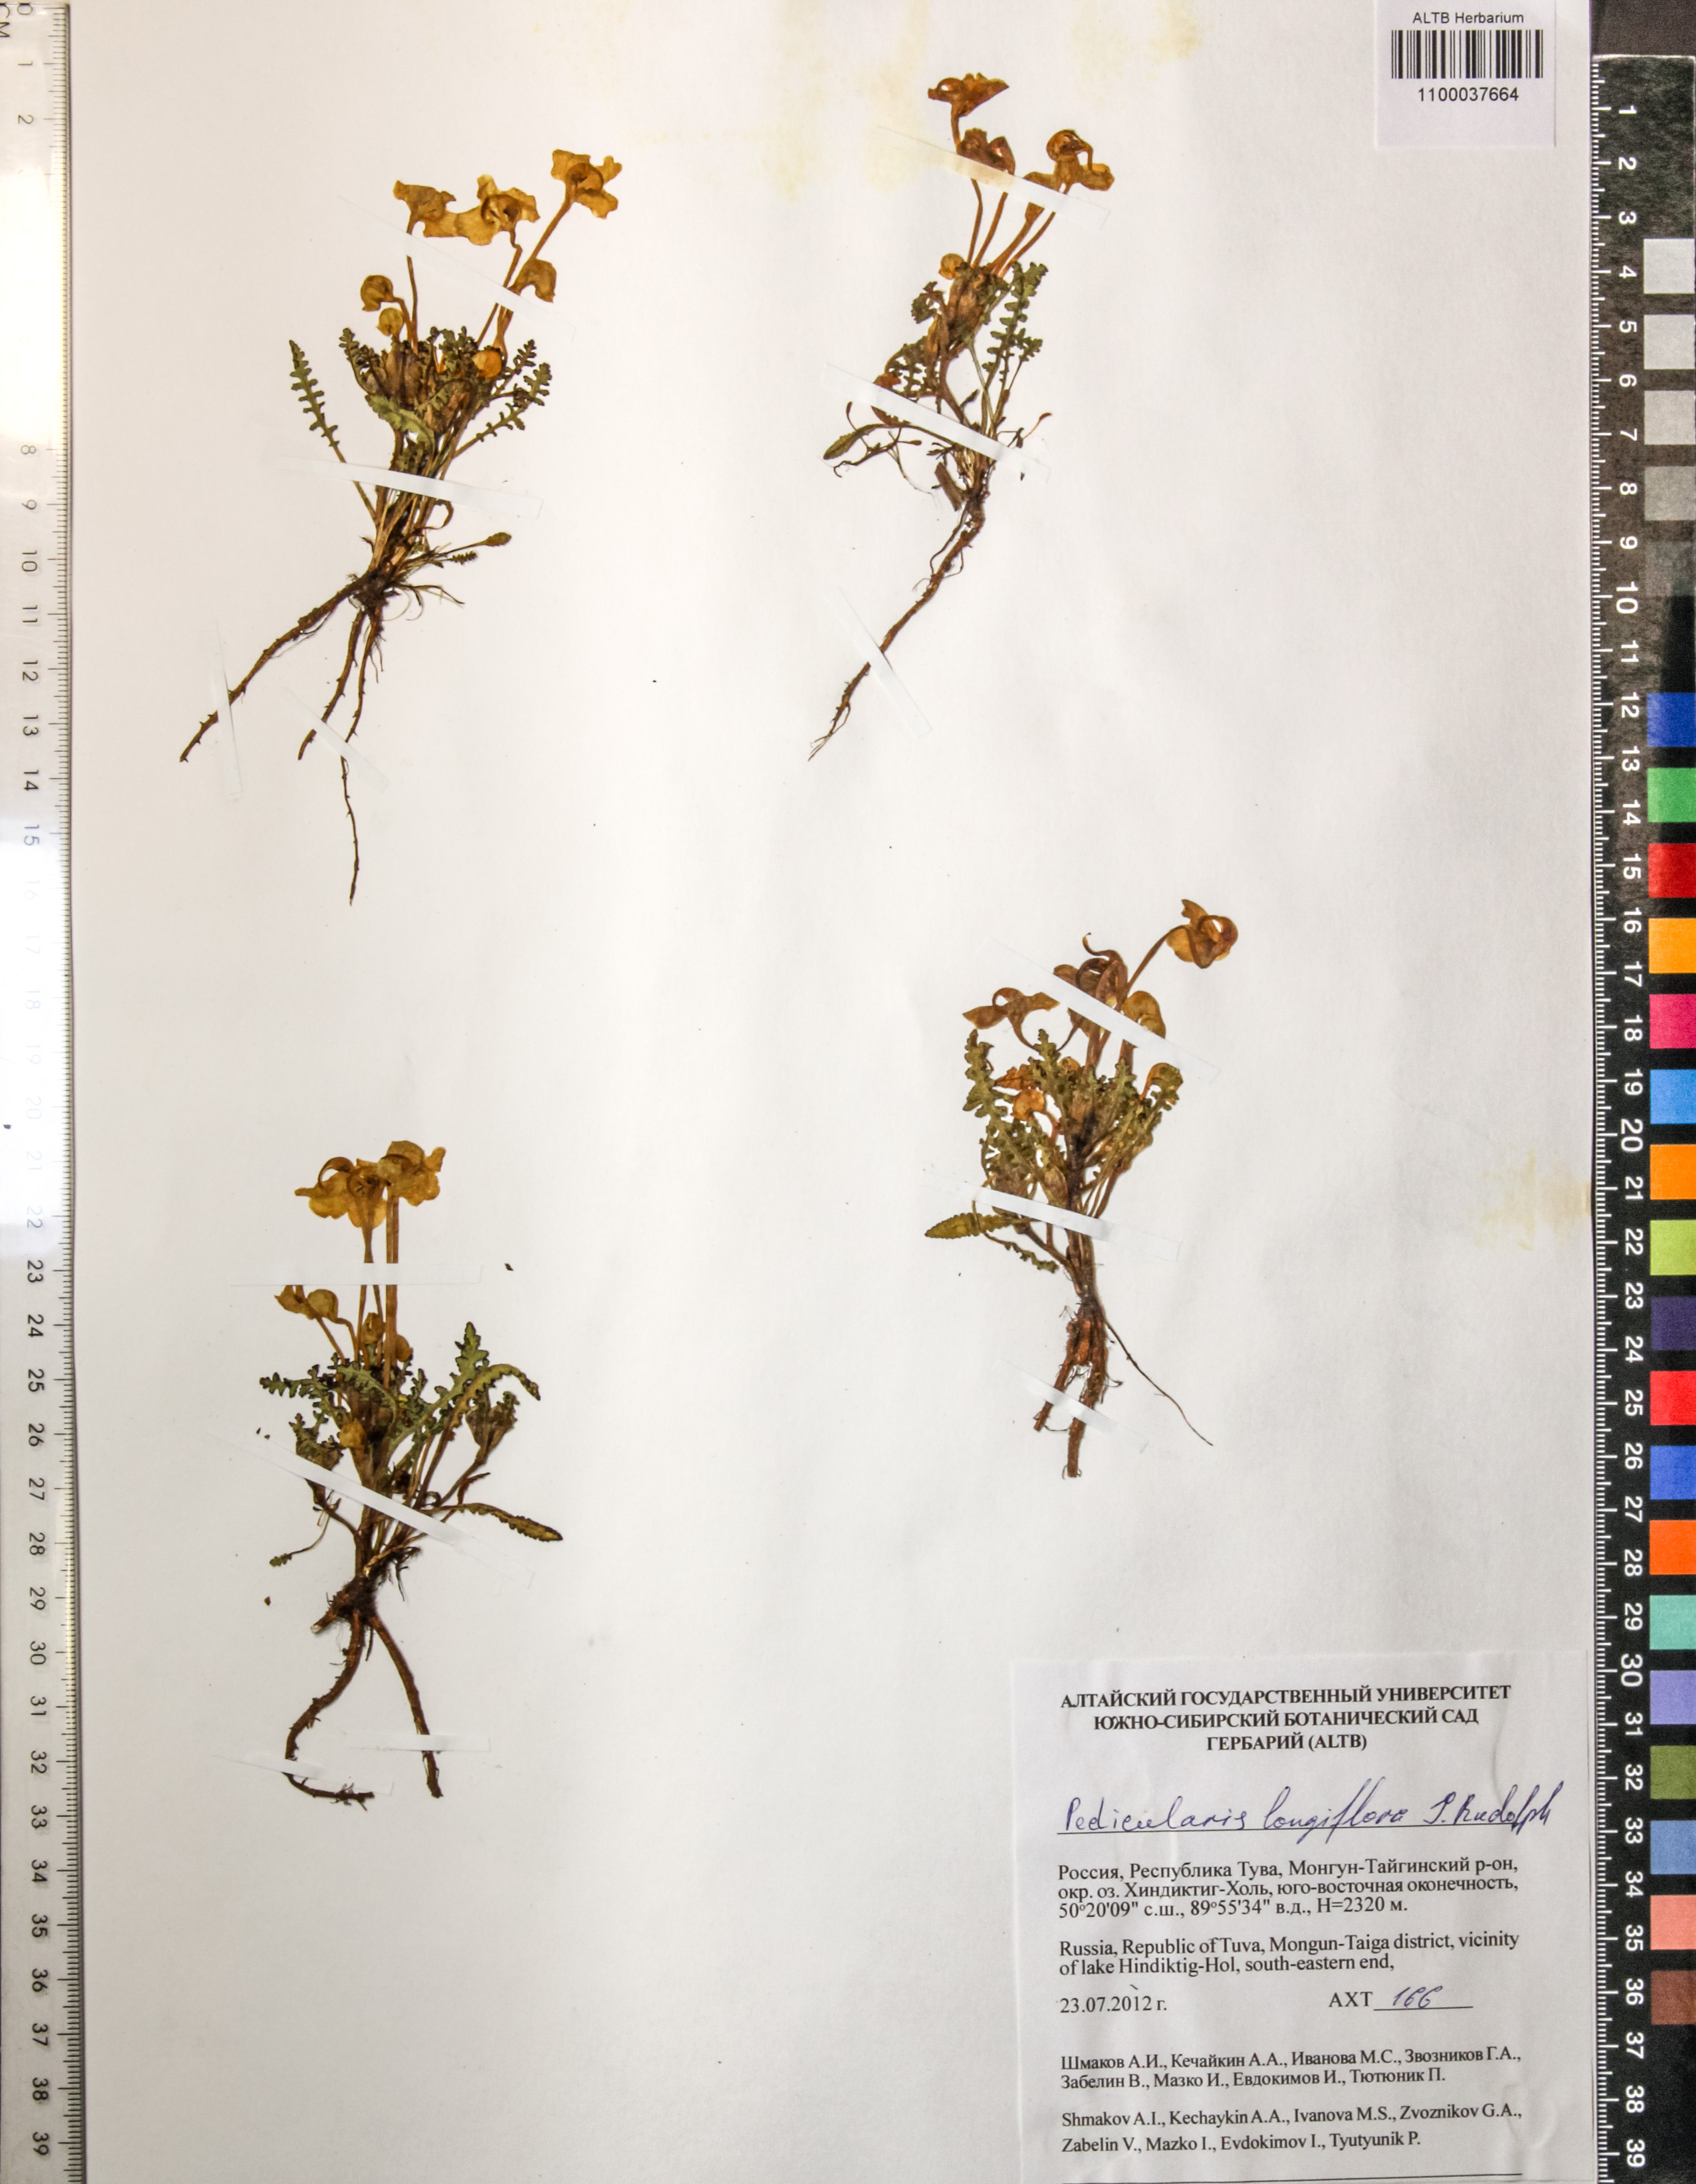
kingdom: Plantae
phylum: Tracheophyta
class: Magnoliopsida
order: Lamiales
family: Orobanchaceae
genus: Pedicularis
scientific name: Pedicularis longiflora
